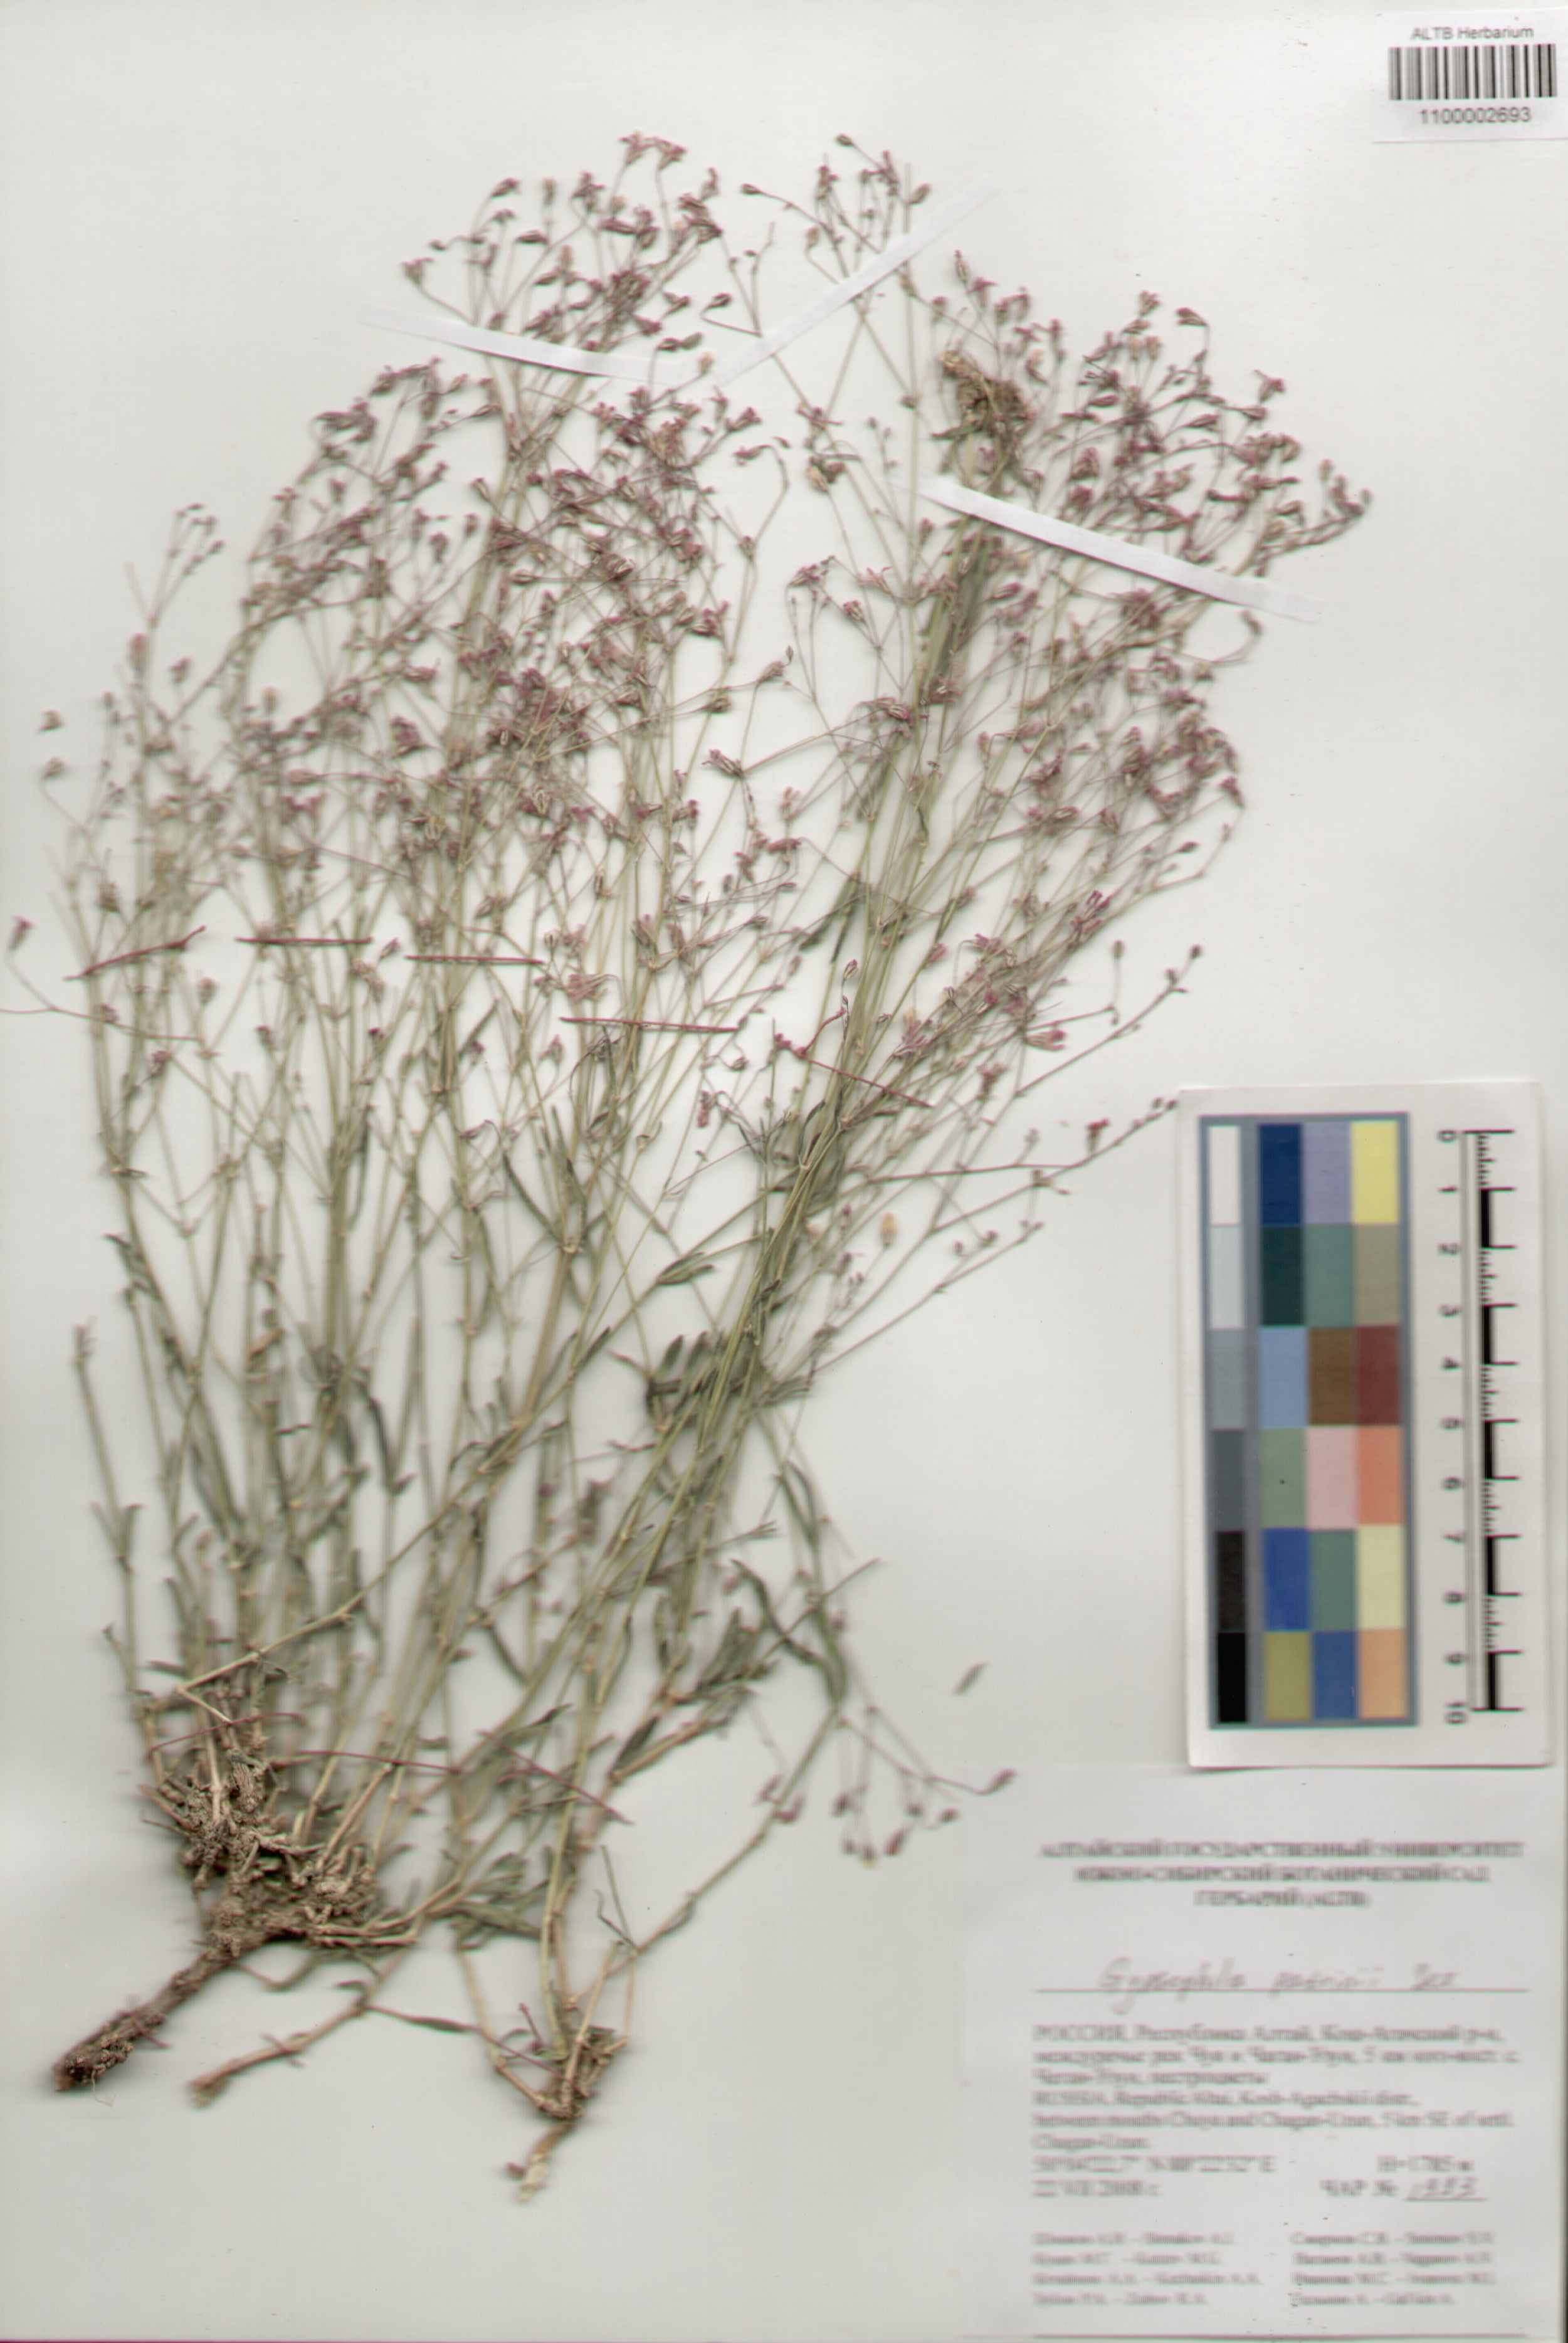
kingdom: Plantae
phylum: Tracheophyta
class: Magnoliopsida
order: Caryophyllales
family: Caryophyllaceae
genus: Gypsophila
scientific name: Gypsophila patrinii
